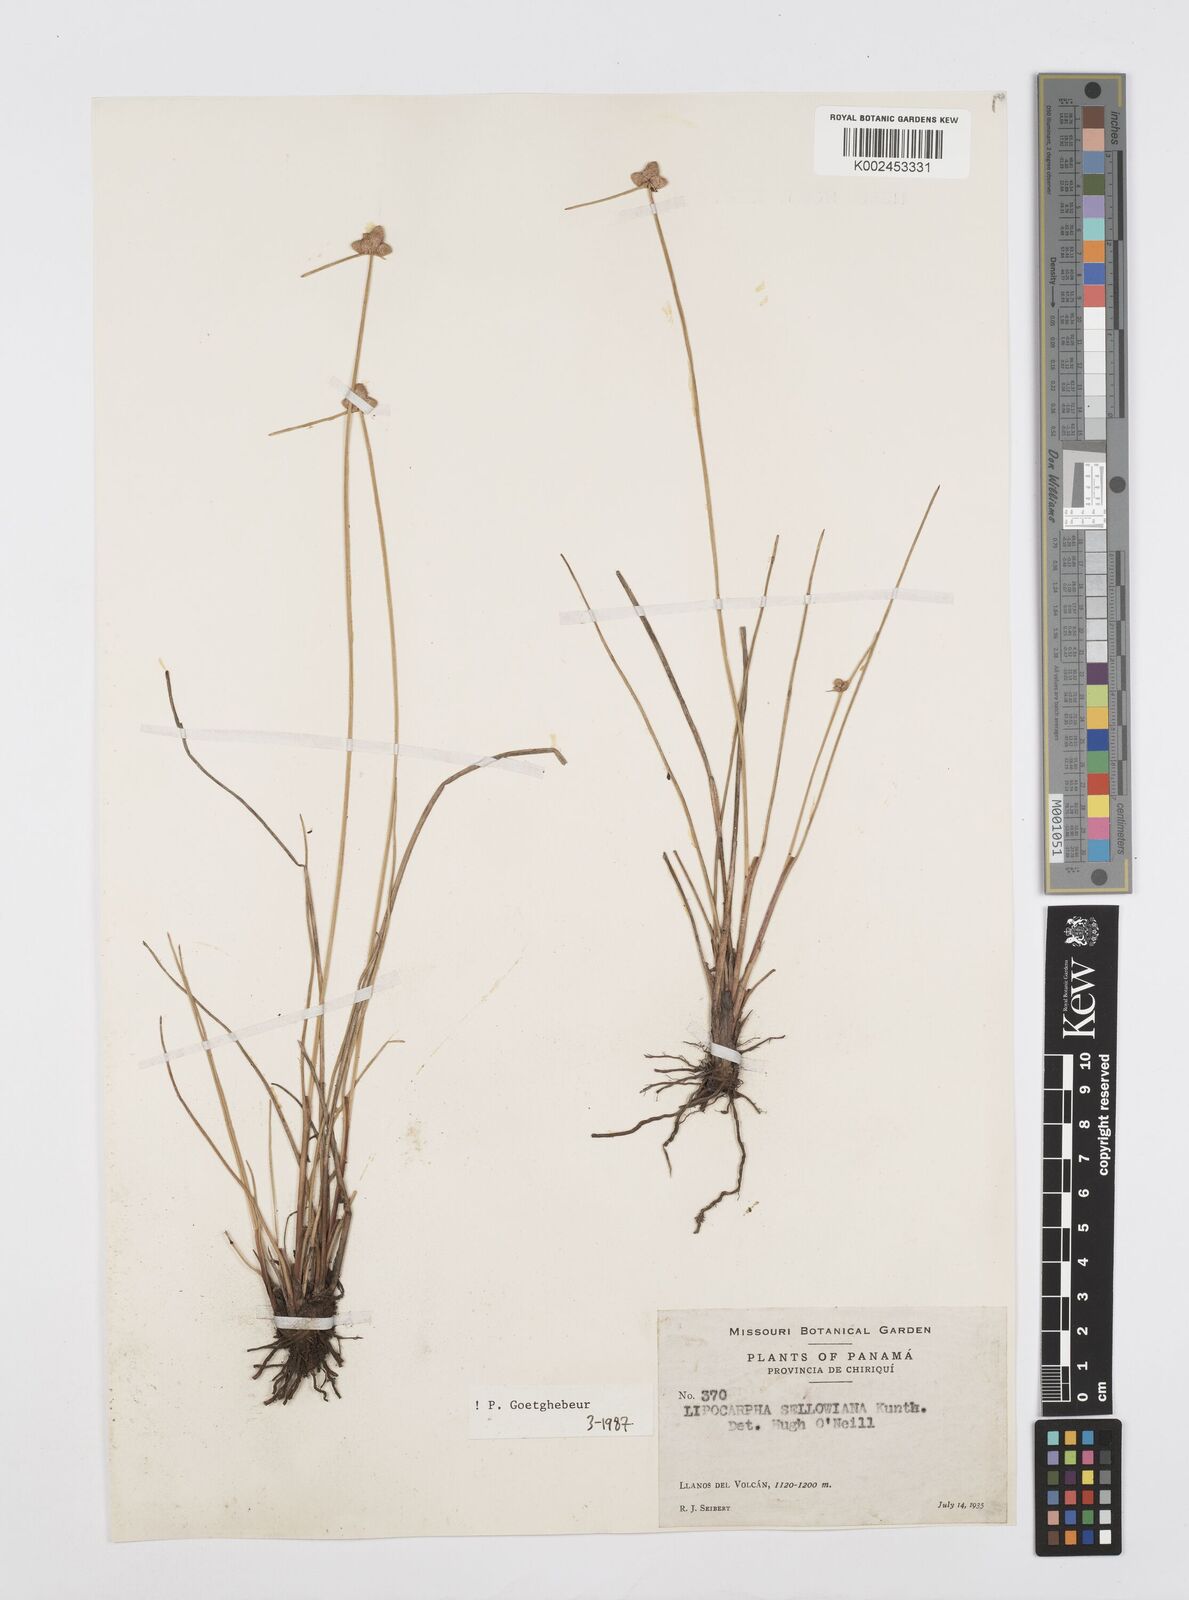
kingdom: Plantae
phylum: Tracheophyta
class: Liliopsida
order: Poales
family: Cyperaceae
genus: Cyperus
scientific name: Cyperus lanceolatus
